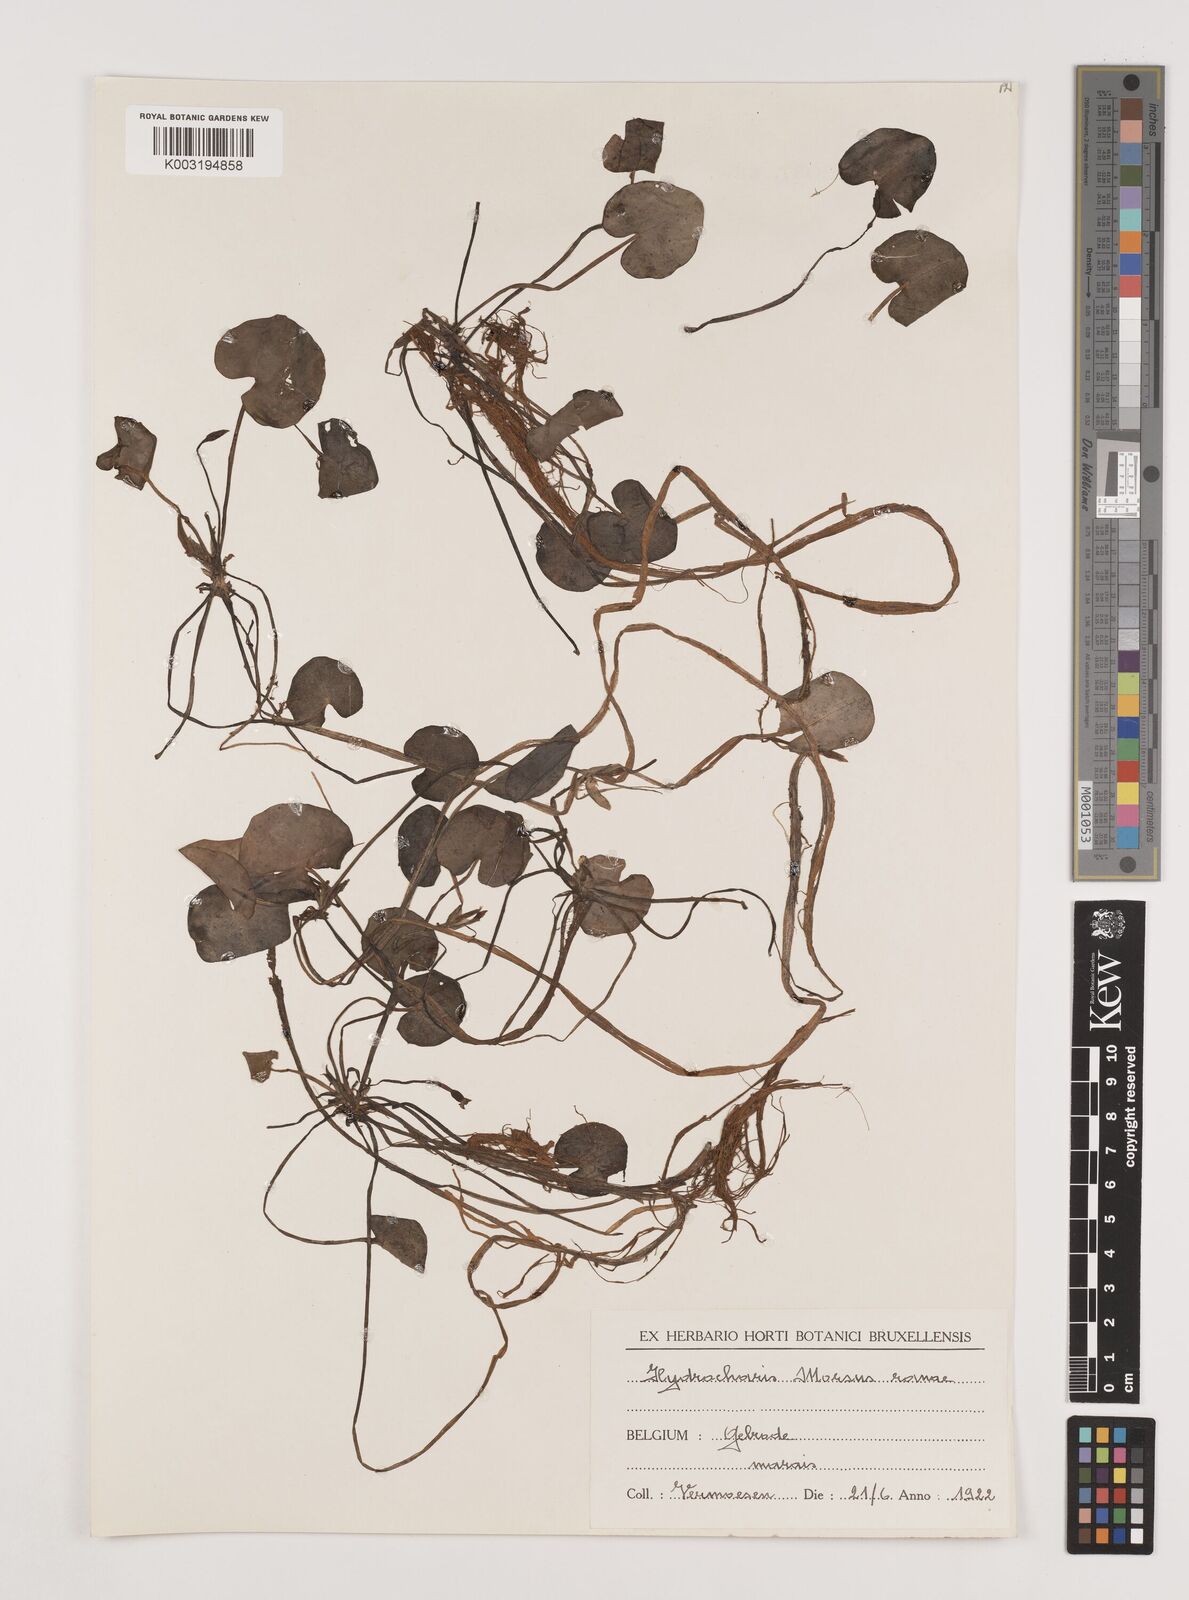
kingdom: Plantae
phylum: Tracheophyta
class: Liliopsida
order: Alismatales
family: Hydrocharitaceae
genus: Hydrocharis
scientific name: Hydrocharis morsus-ranae
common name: Frogbit
